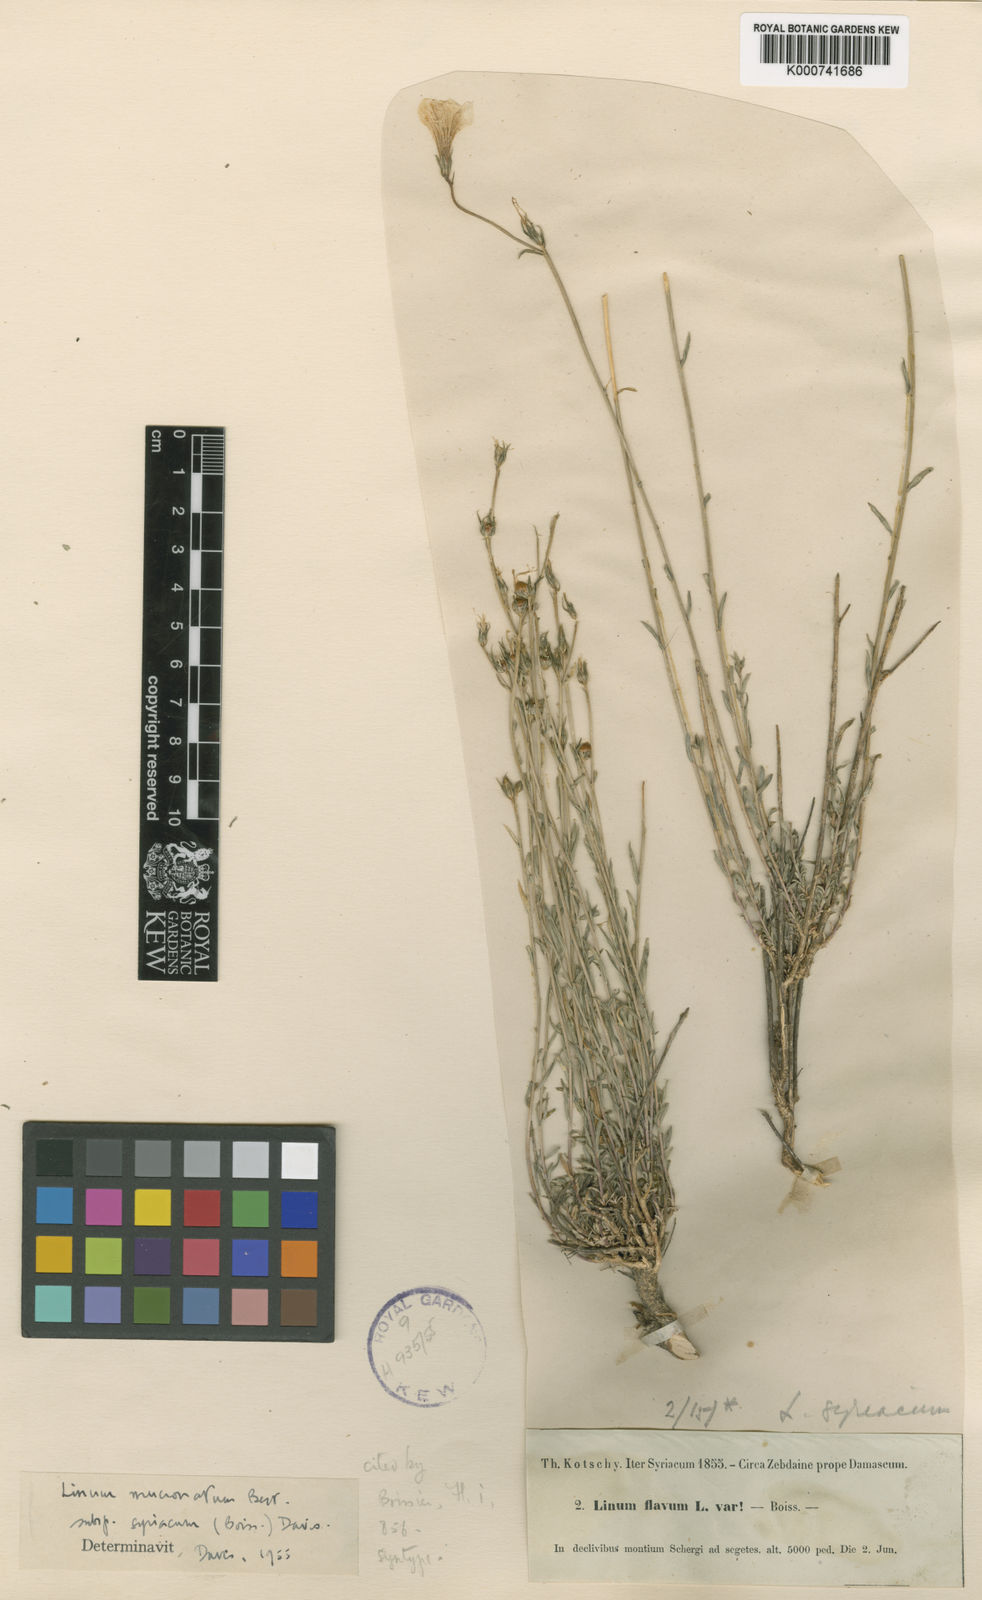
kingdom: Plantae
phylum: Tracheophyta
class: Magnoliopsida
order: Malpighiales
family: Linaceae
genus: Linum
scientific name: Linum mucronatum
